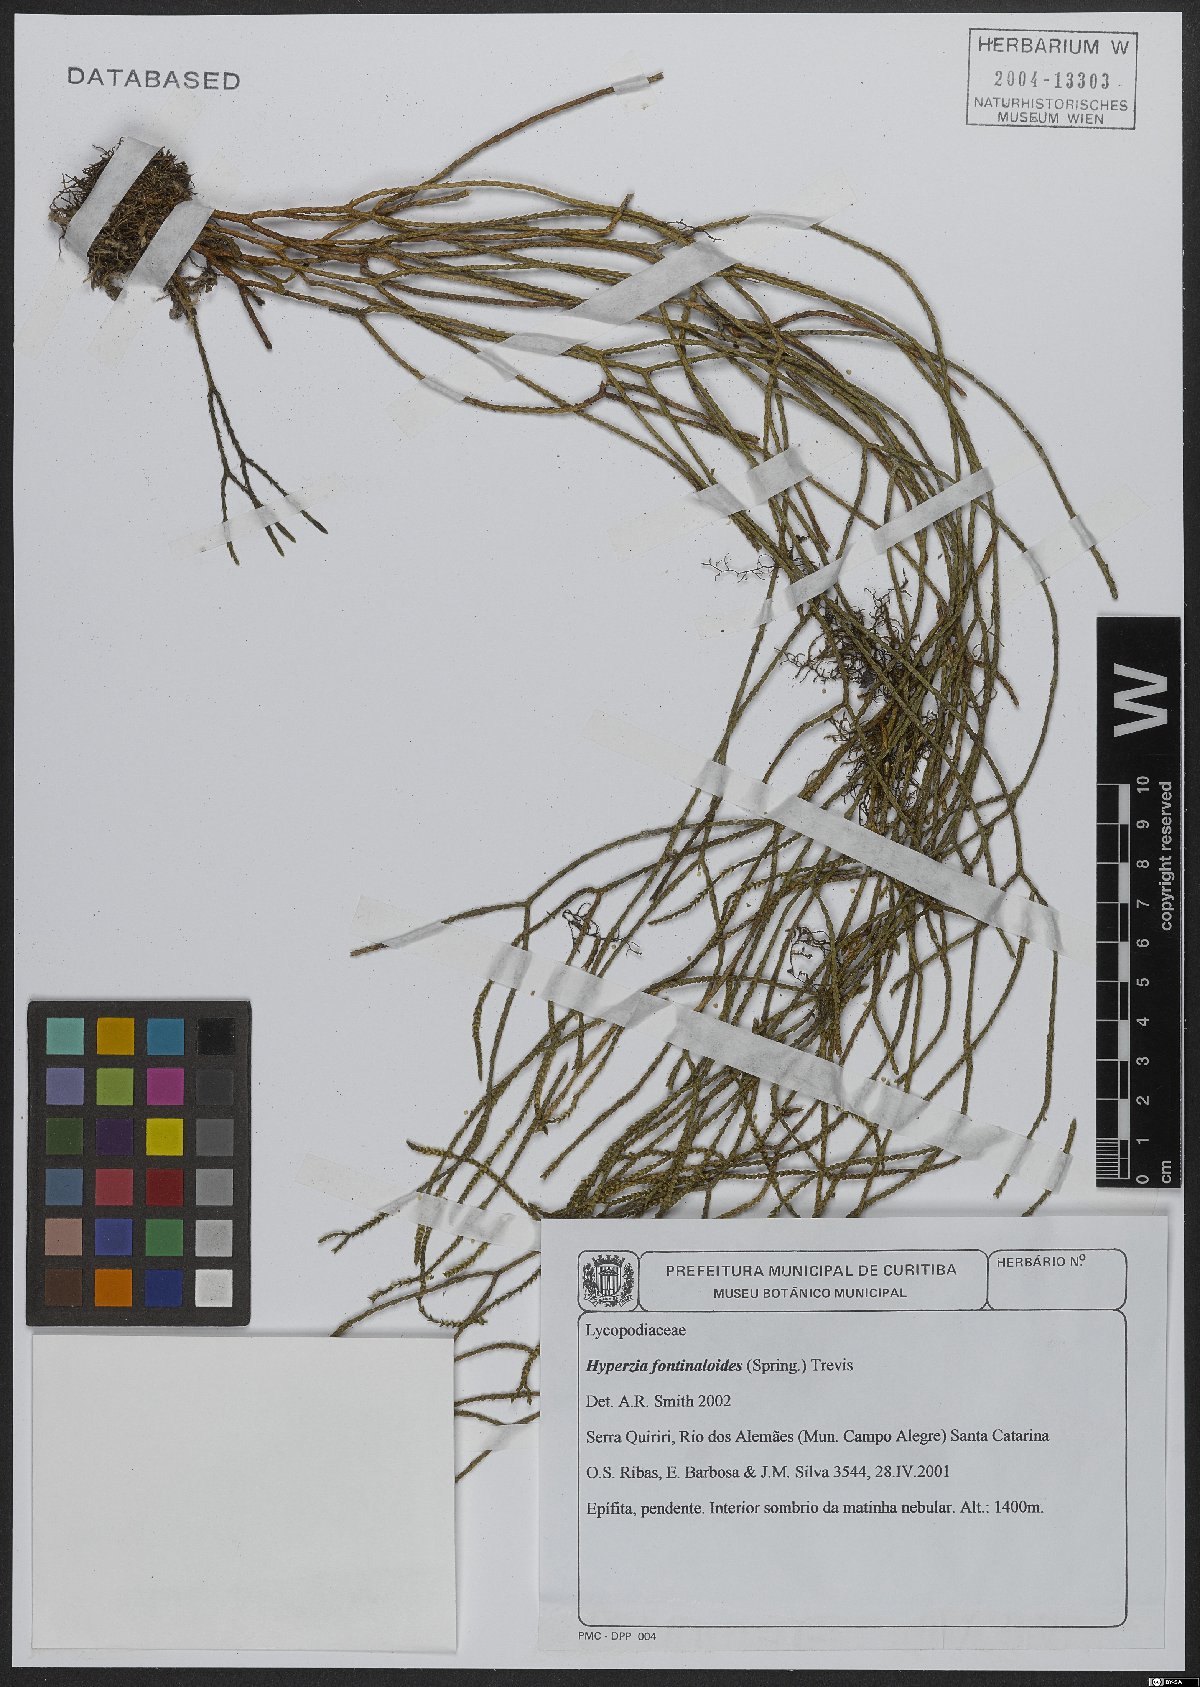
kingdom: Plantae
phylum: Tracheophyta
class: Lycopodiopsida
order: Lycopodiales
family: Lycopodiaceae
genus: Phlegmariurus
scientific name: Phlegmariurus fontinaloides
